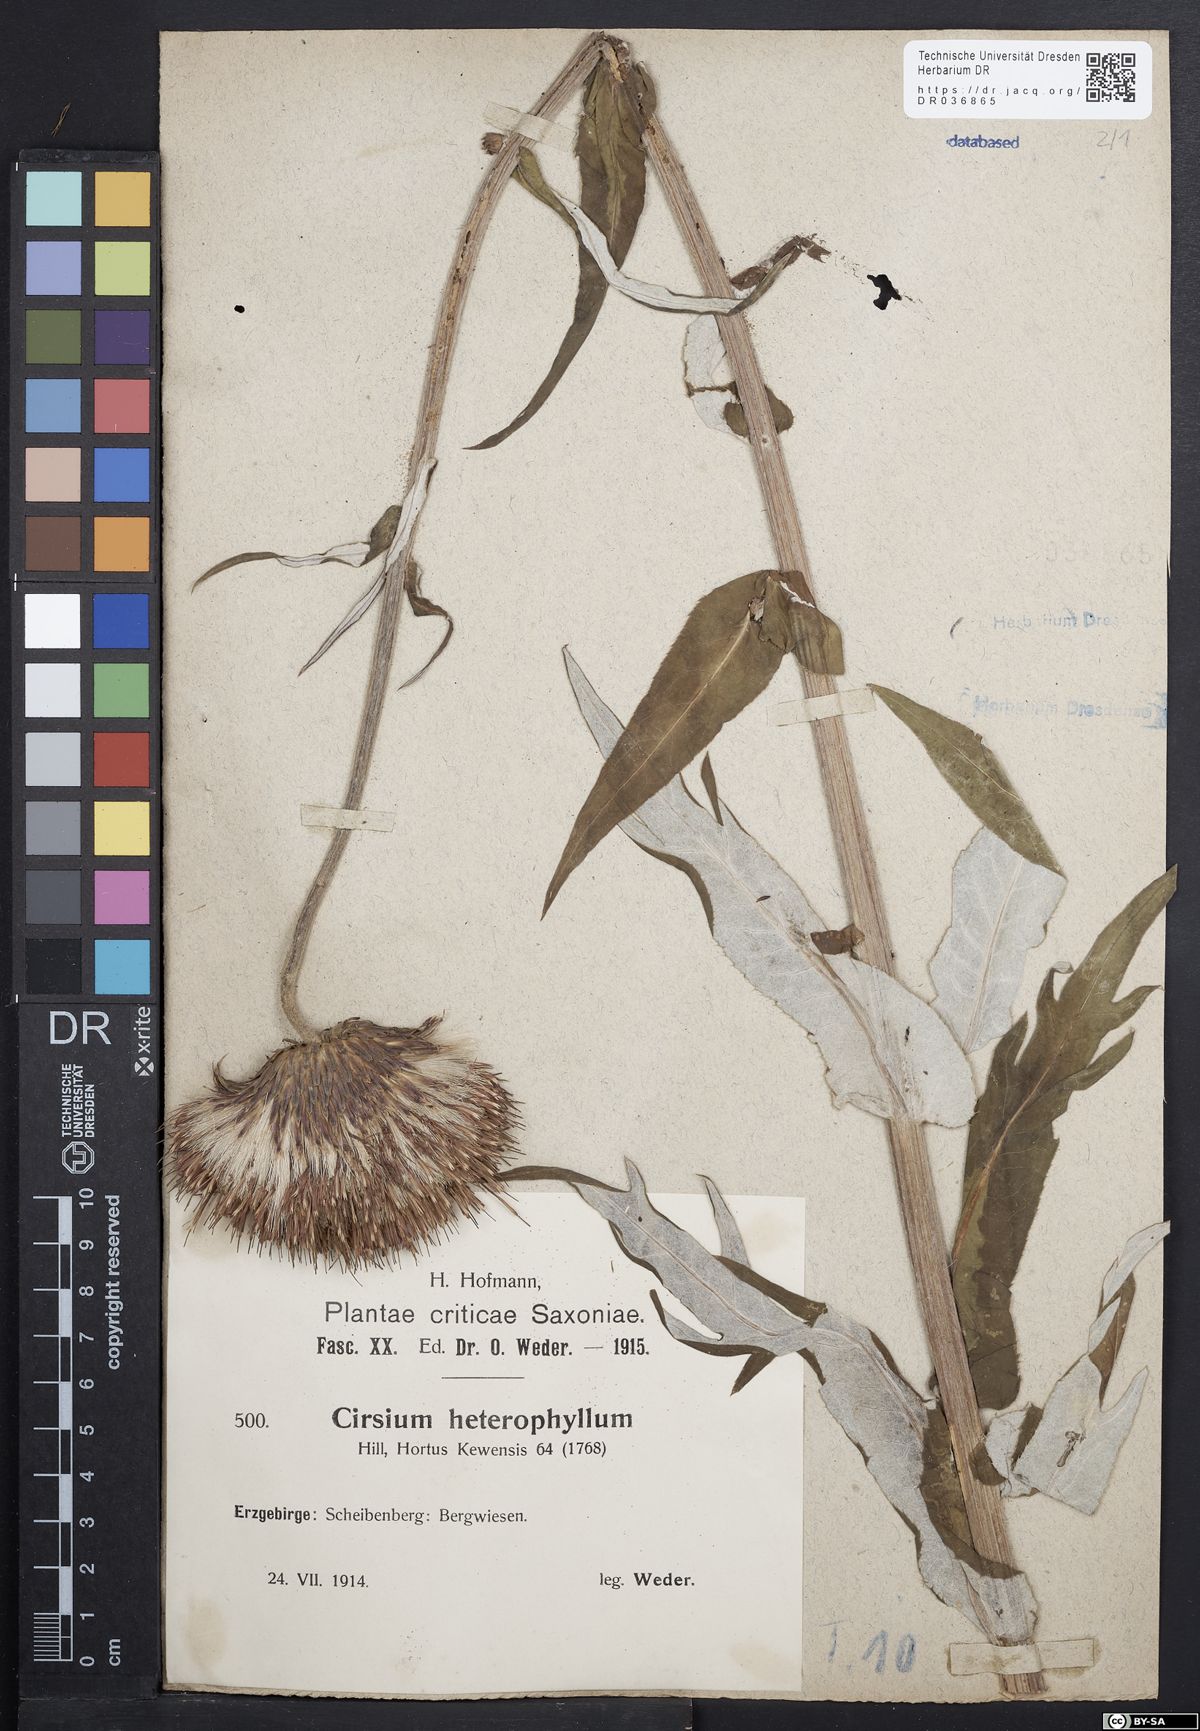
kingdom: Plantae
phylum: Tracheophyta
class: Magnoliopsida
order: Asterales
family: Asteraceae
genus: Cirsium
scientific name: Cirsium helenioides
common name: Melancholy thistle
